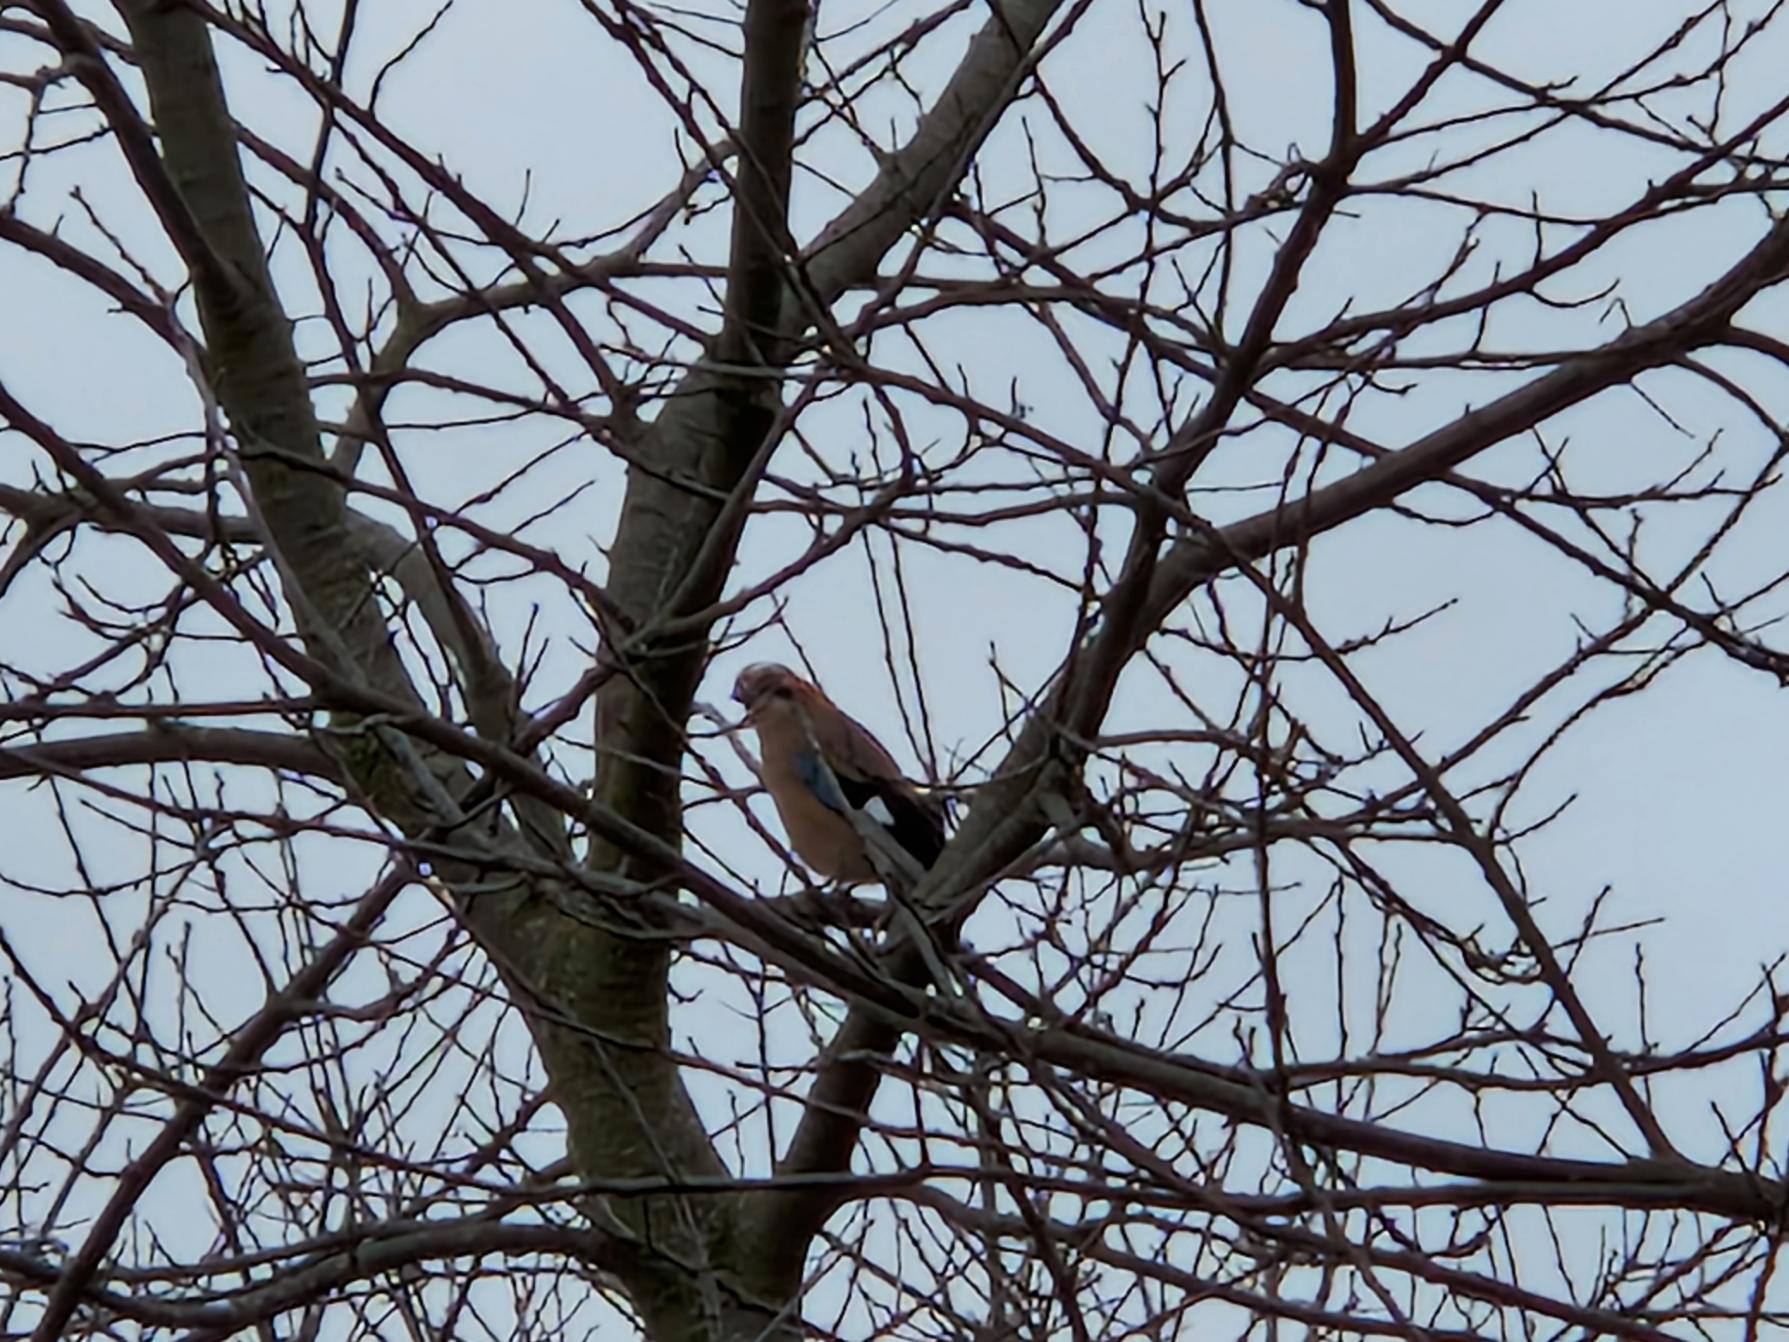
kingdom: Animalia
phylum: Chordata
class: Aves
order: Passeriformes
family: Corvidae
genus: Garrulus
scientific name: Garrulus glandarius
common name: Skovskade
